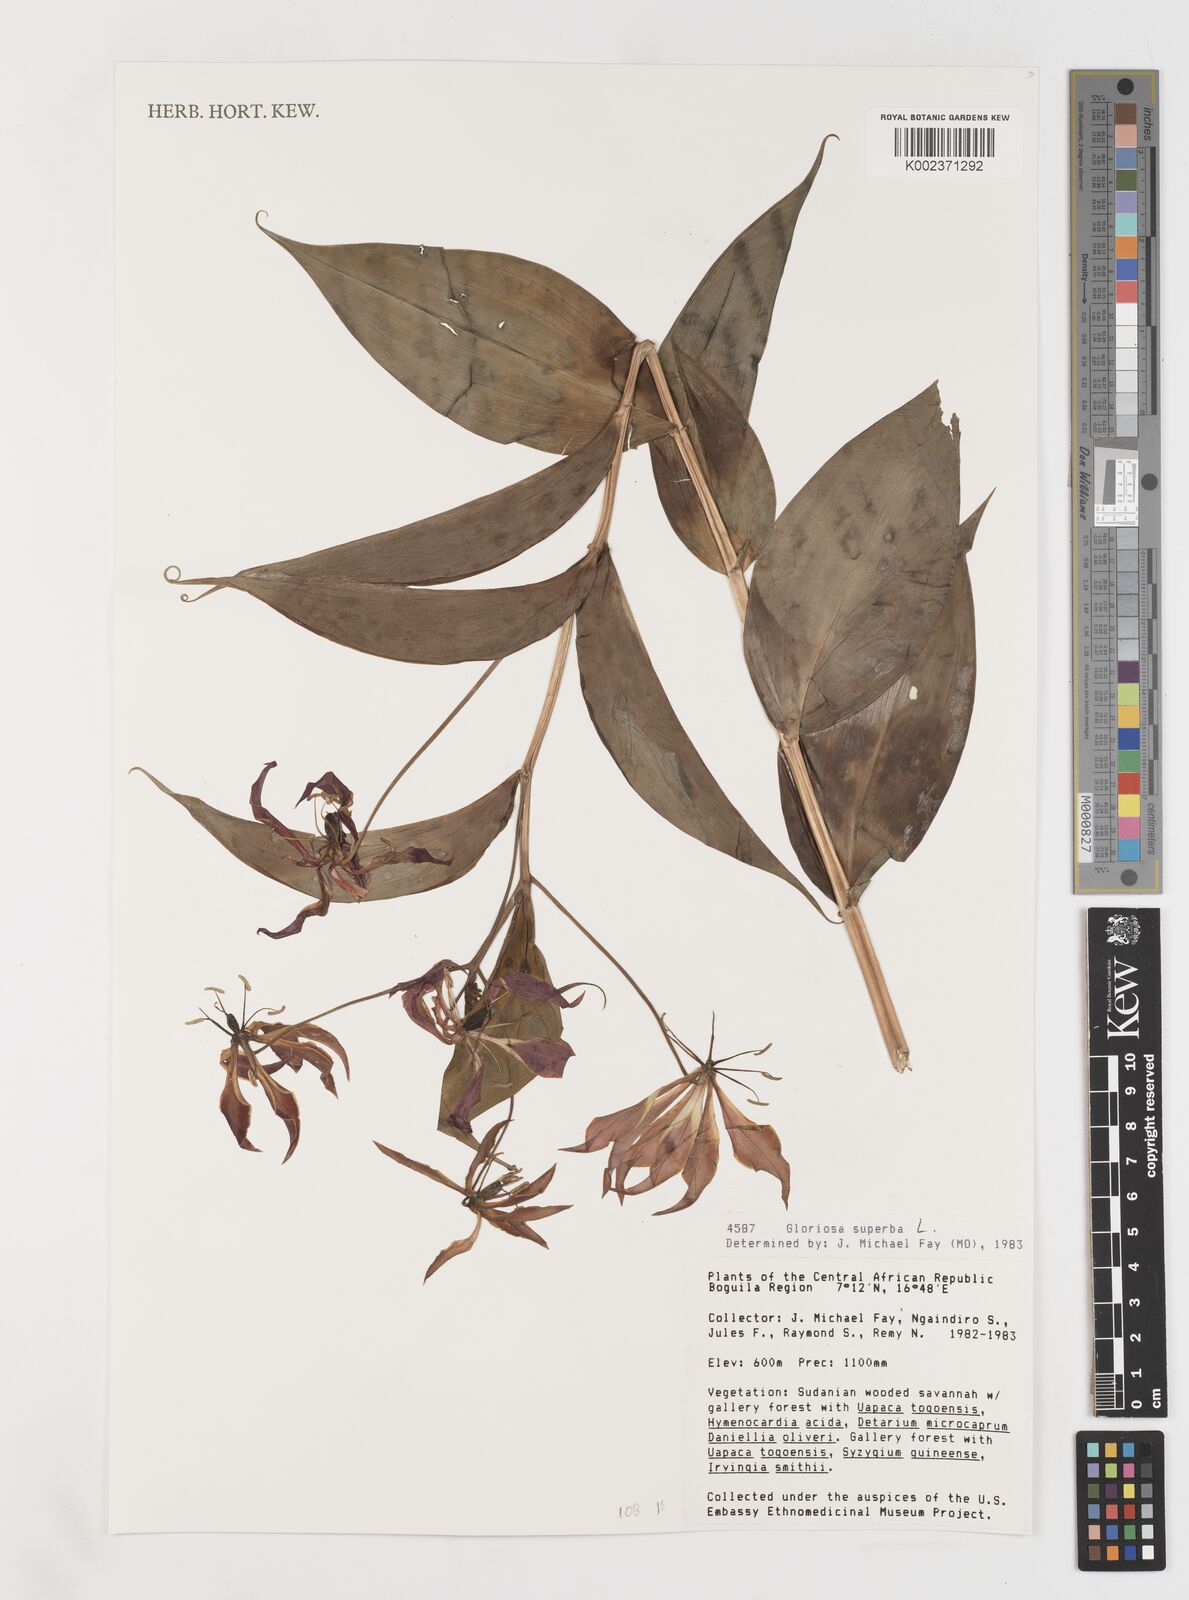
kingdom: Plantae
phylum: Tracheophyta
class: Liliopsida
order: Liliales
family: Colchicaceae
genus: Gloriosa
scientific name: Gloriosa simplex
